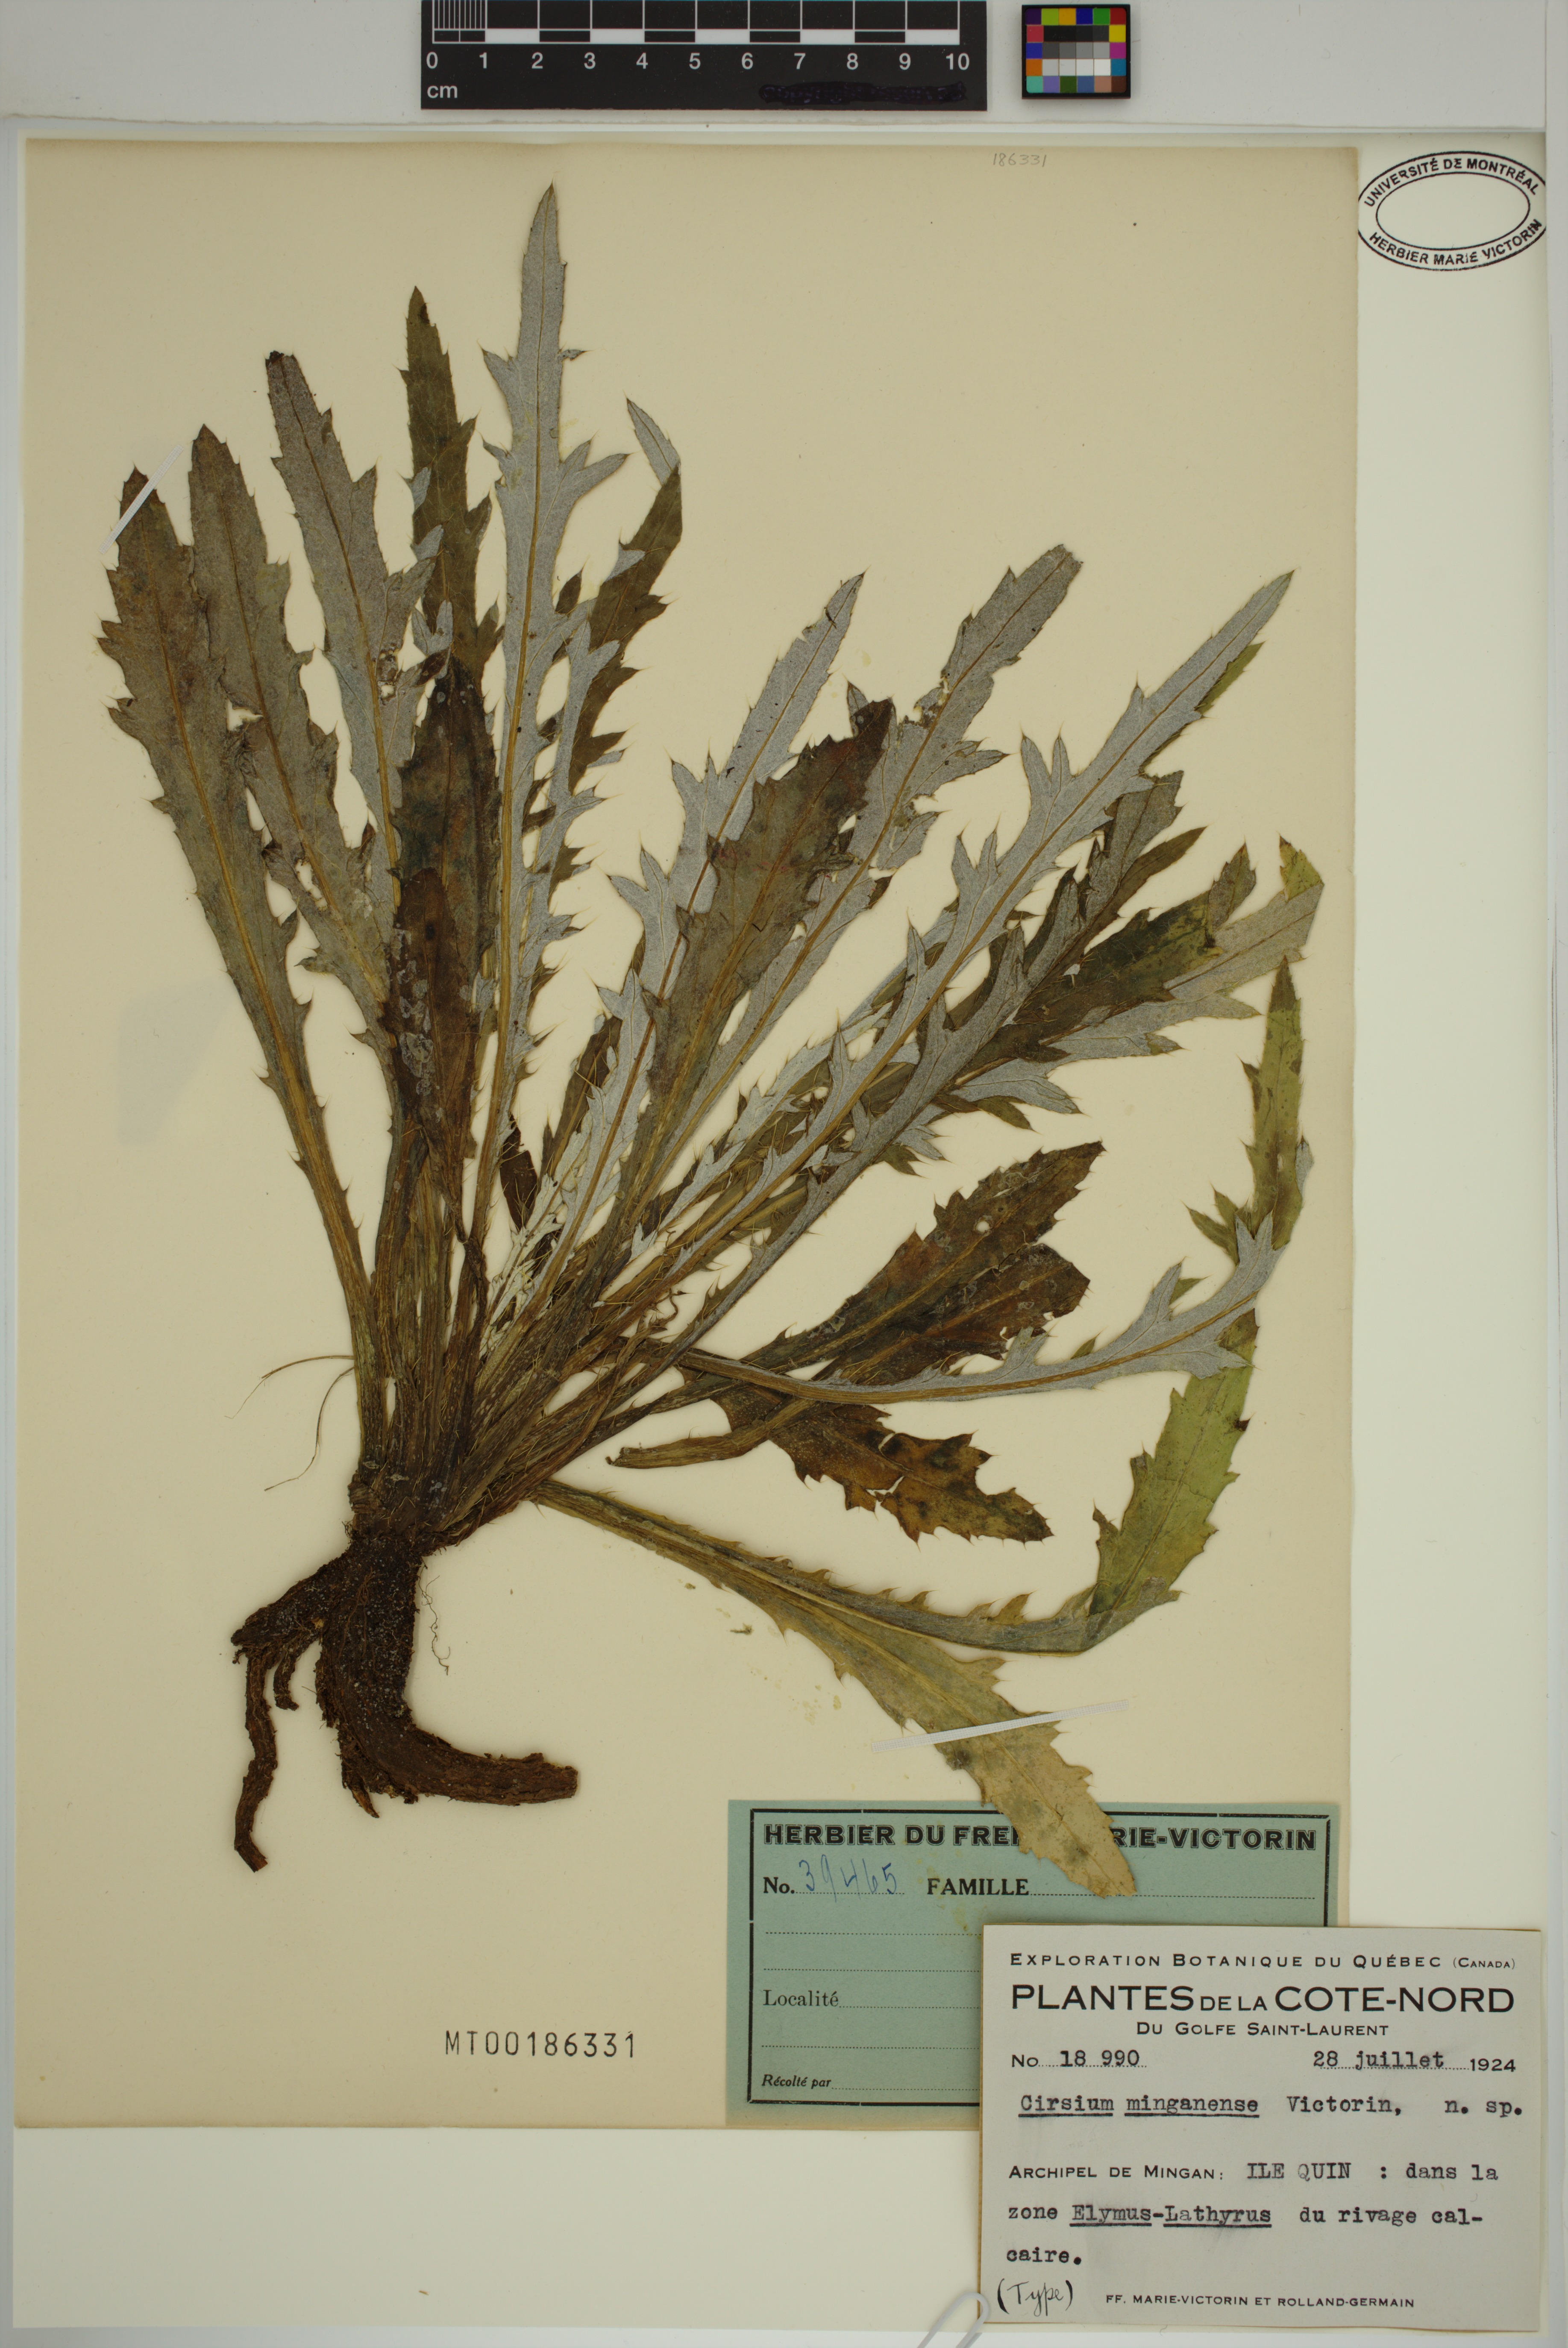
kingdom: Plantae
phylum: Tracheophyta
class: Magnoliopsida
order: Asterales
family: Asteraceae
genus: Cirsium
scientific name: Cirsium scariosum
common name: Meadow thistle
